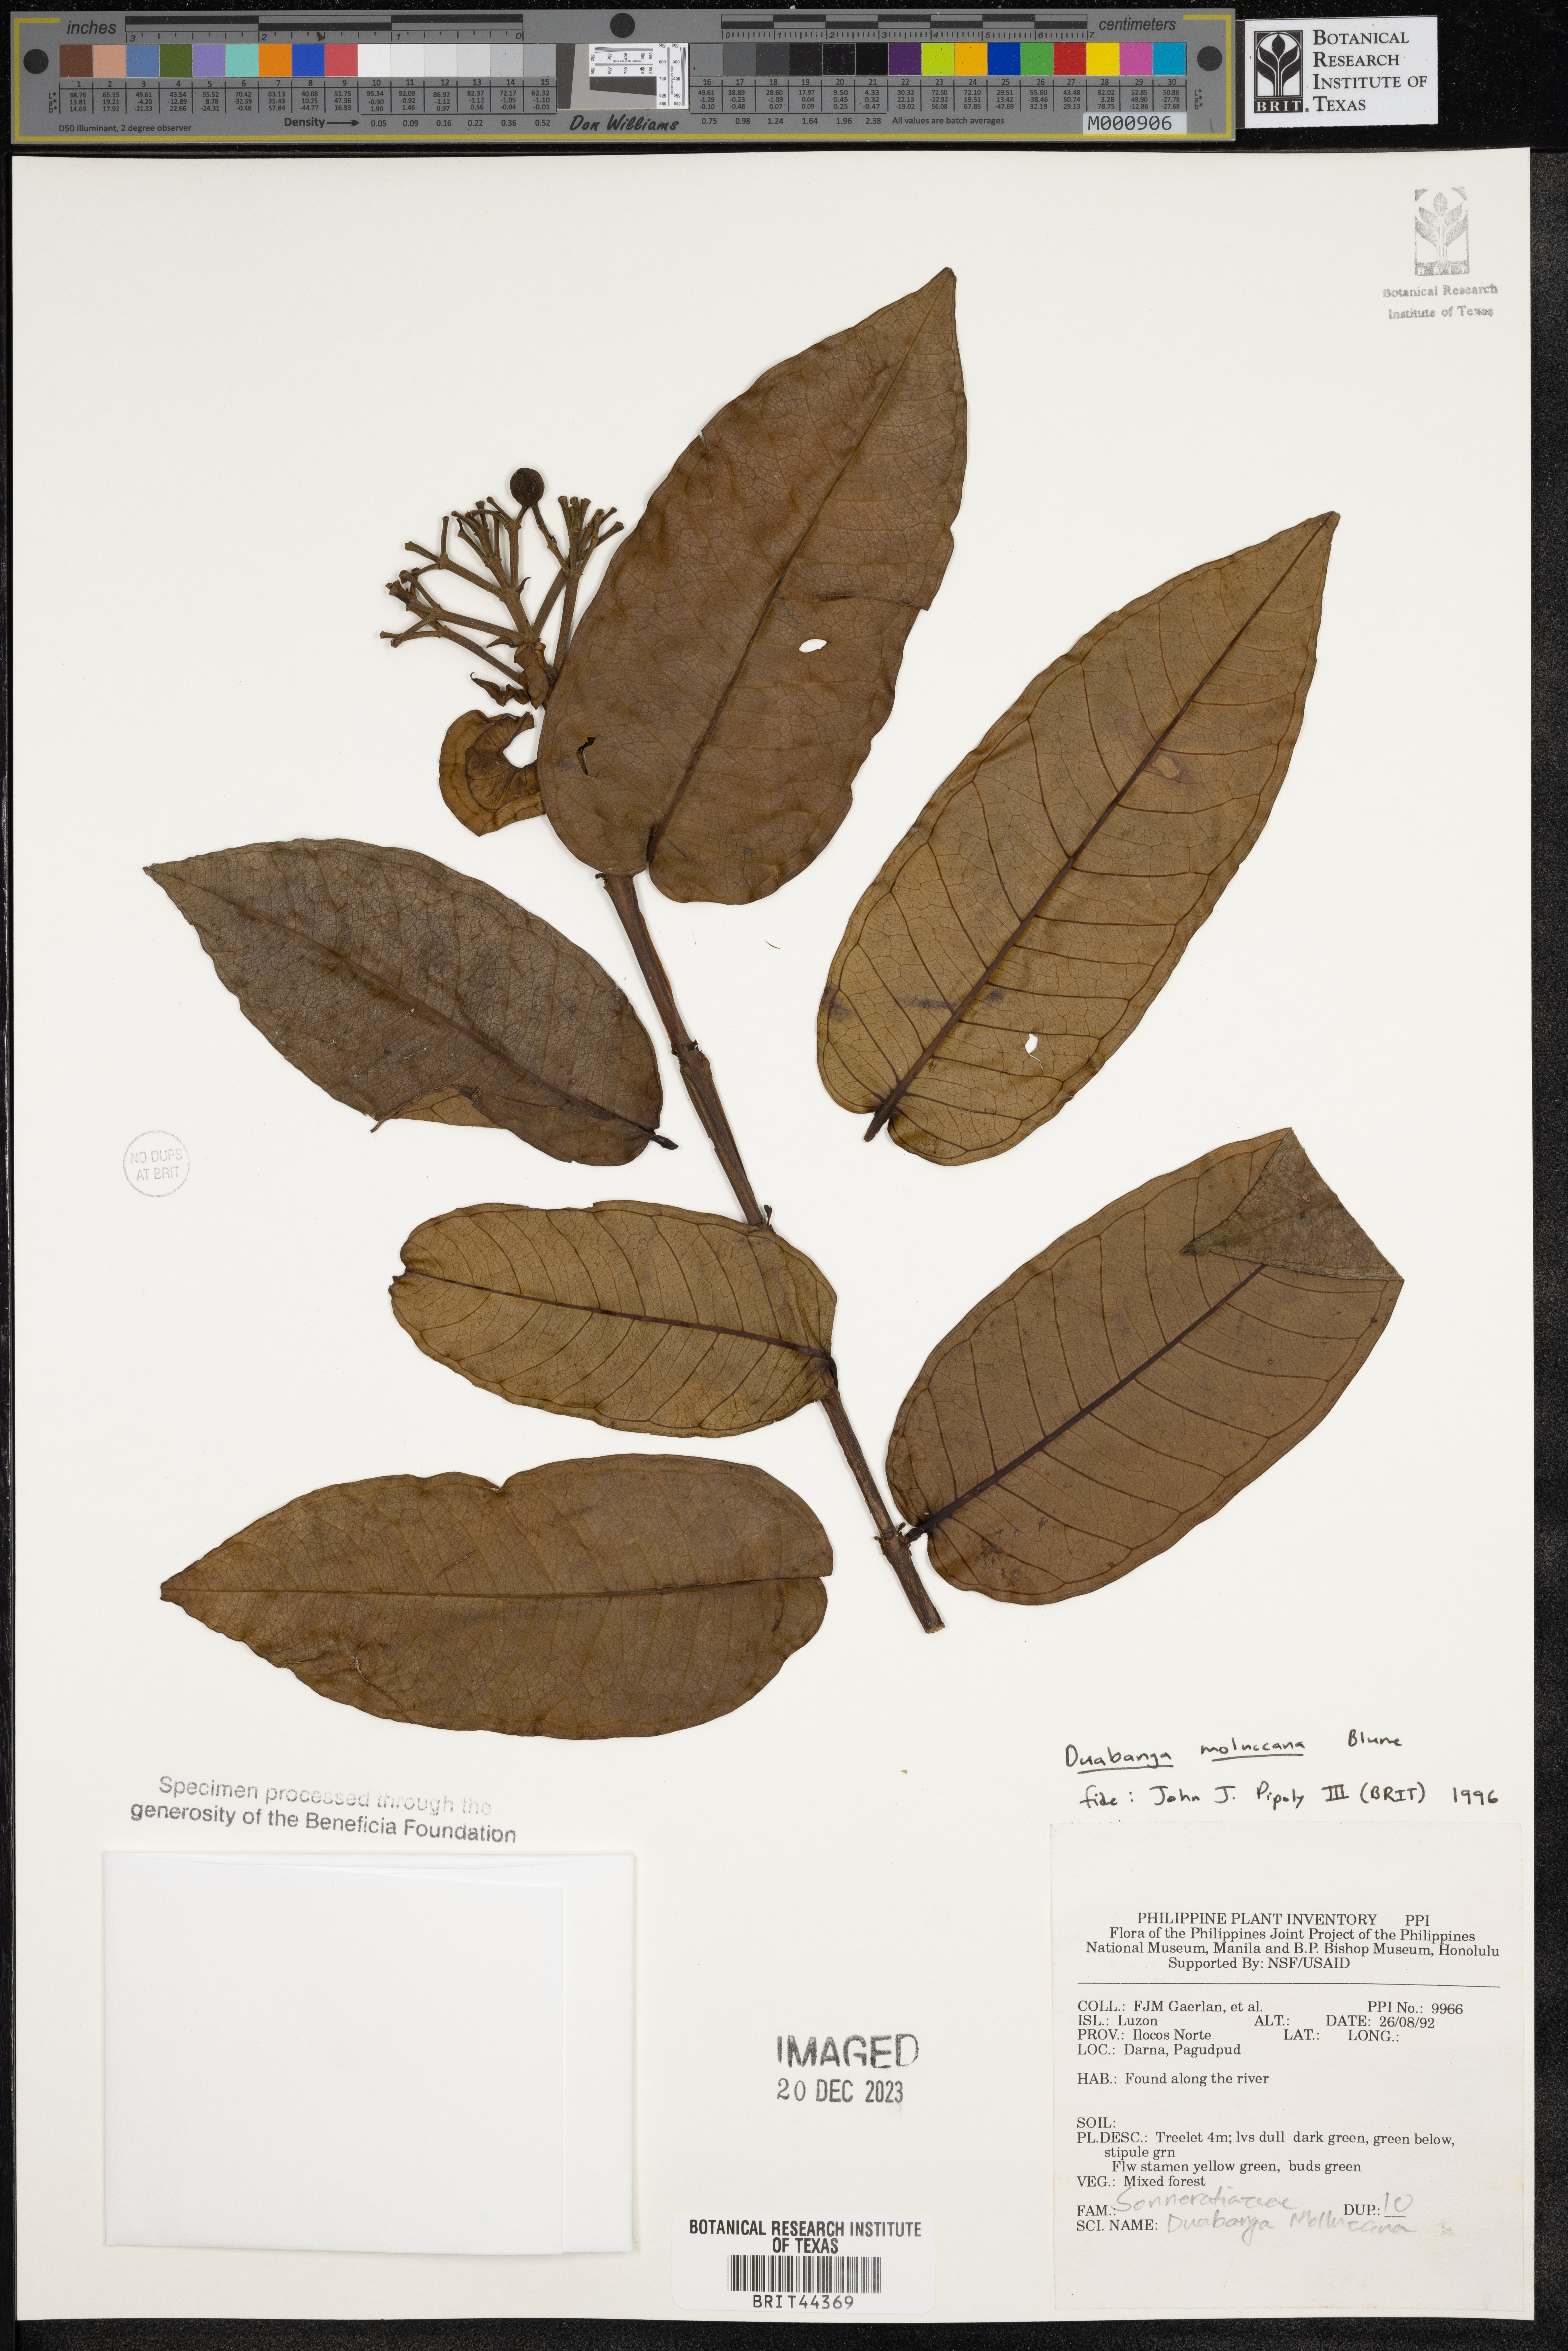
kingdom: Plantae
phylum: Tracheophyta
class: Magnoliopsida
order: Myrtales
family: Lythraceae
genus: Duabanga
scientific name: Duabanga moluccana
